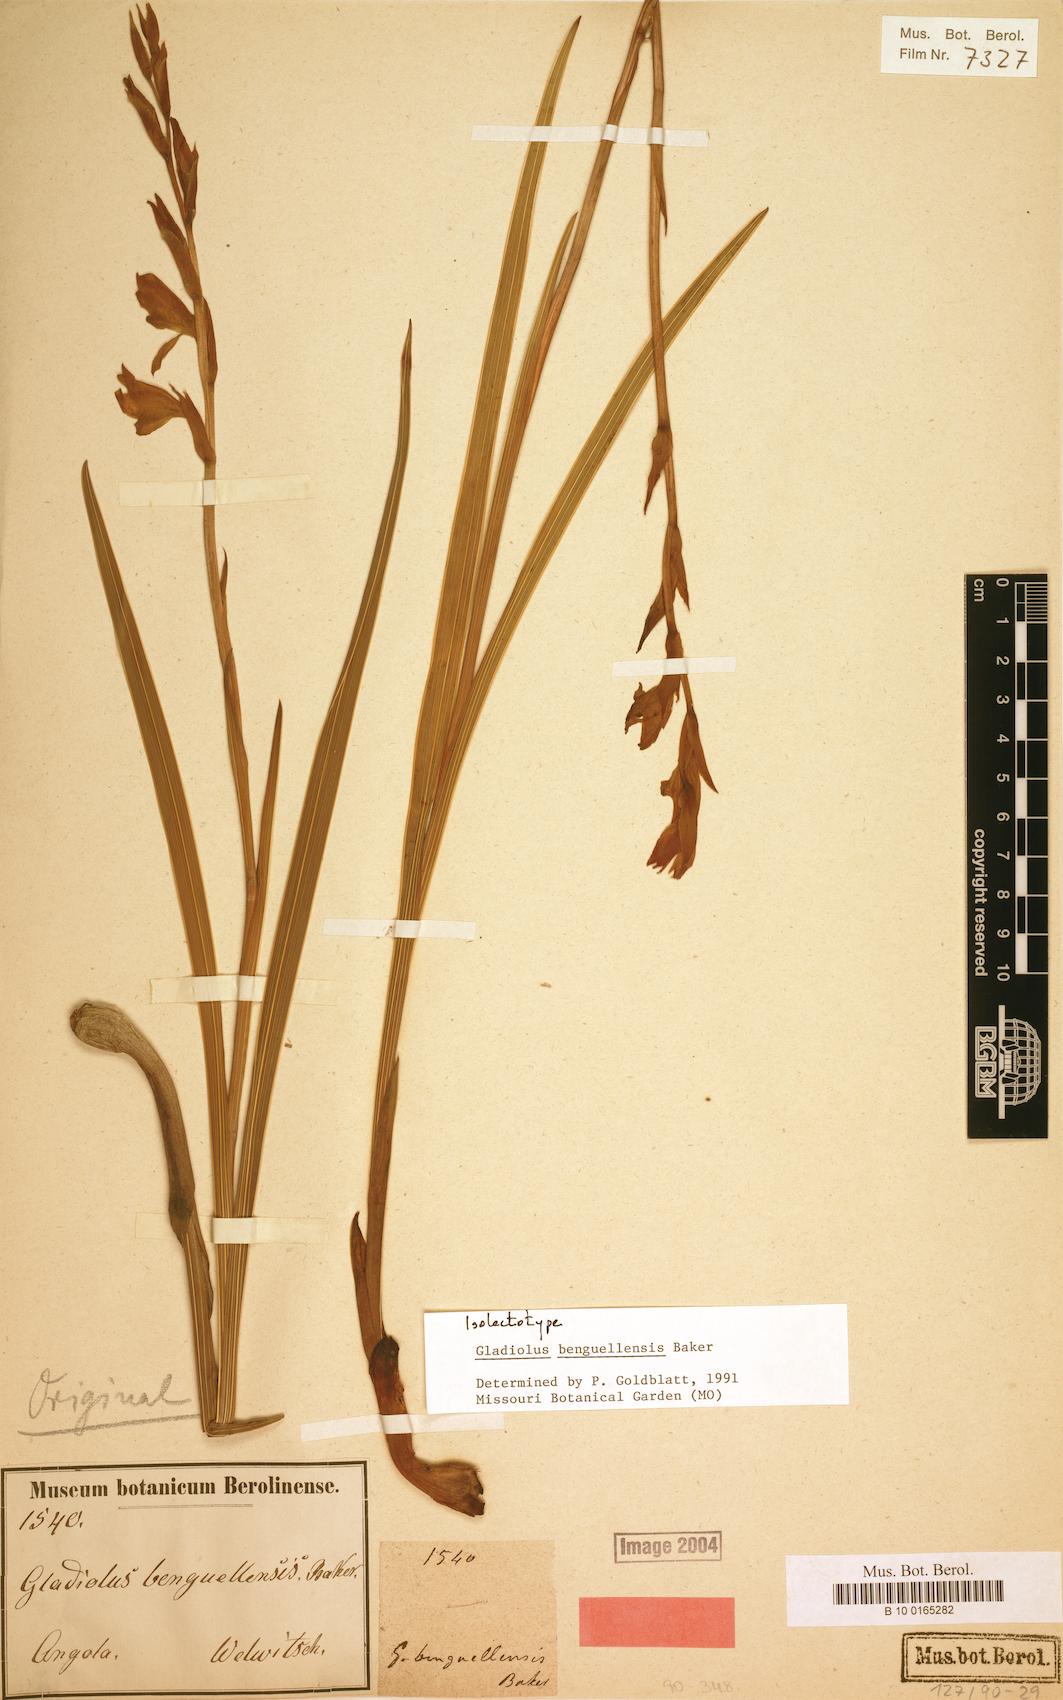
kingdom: Plantae
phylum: Tracheophyta
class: Liliopsida
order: Asparagales
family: Iridaceae
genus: Gladiolus
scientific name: Gladiolus benguellensis
